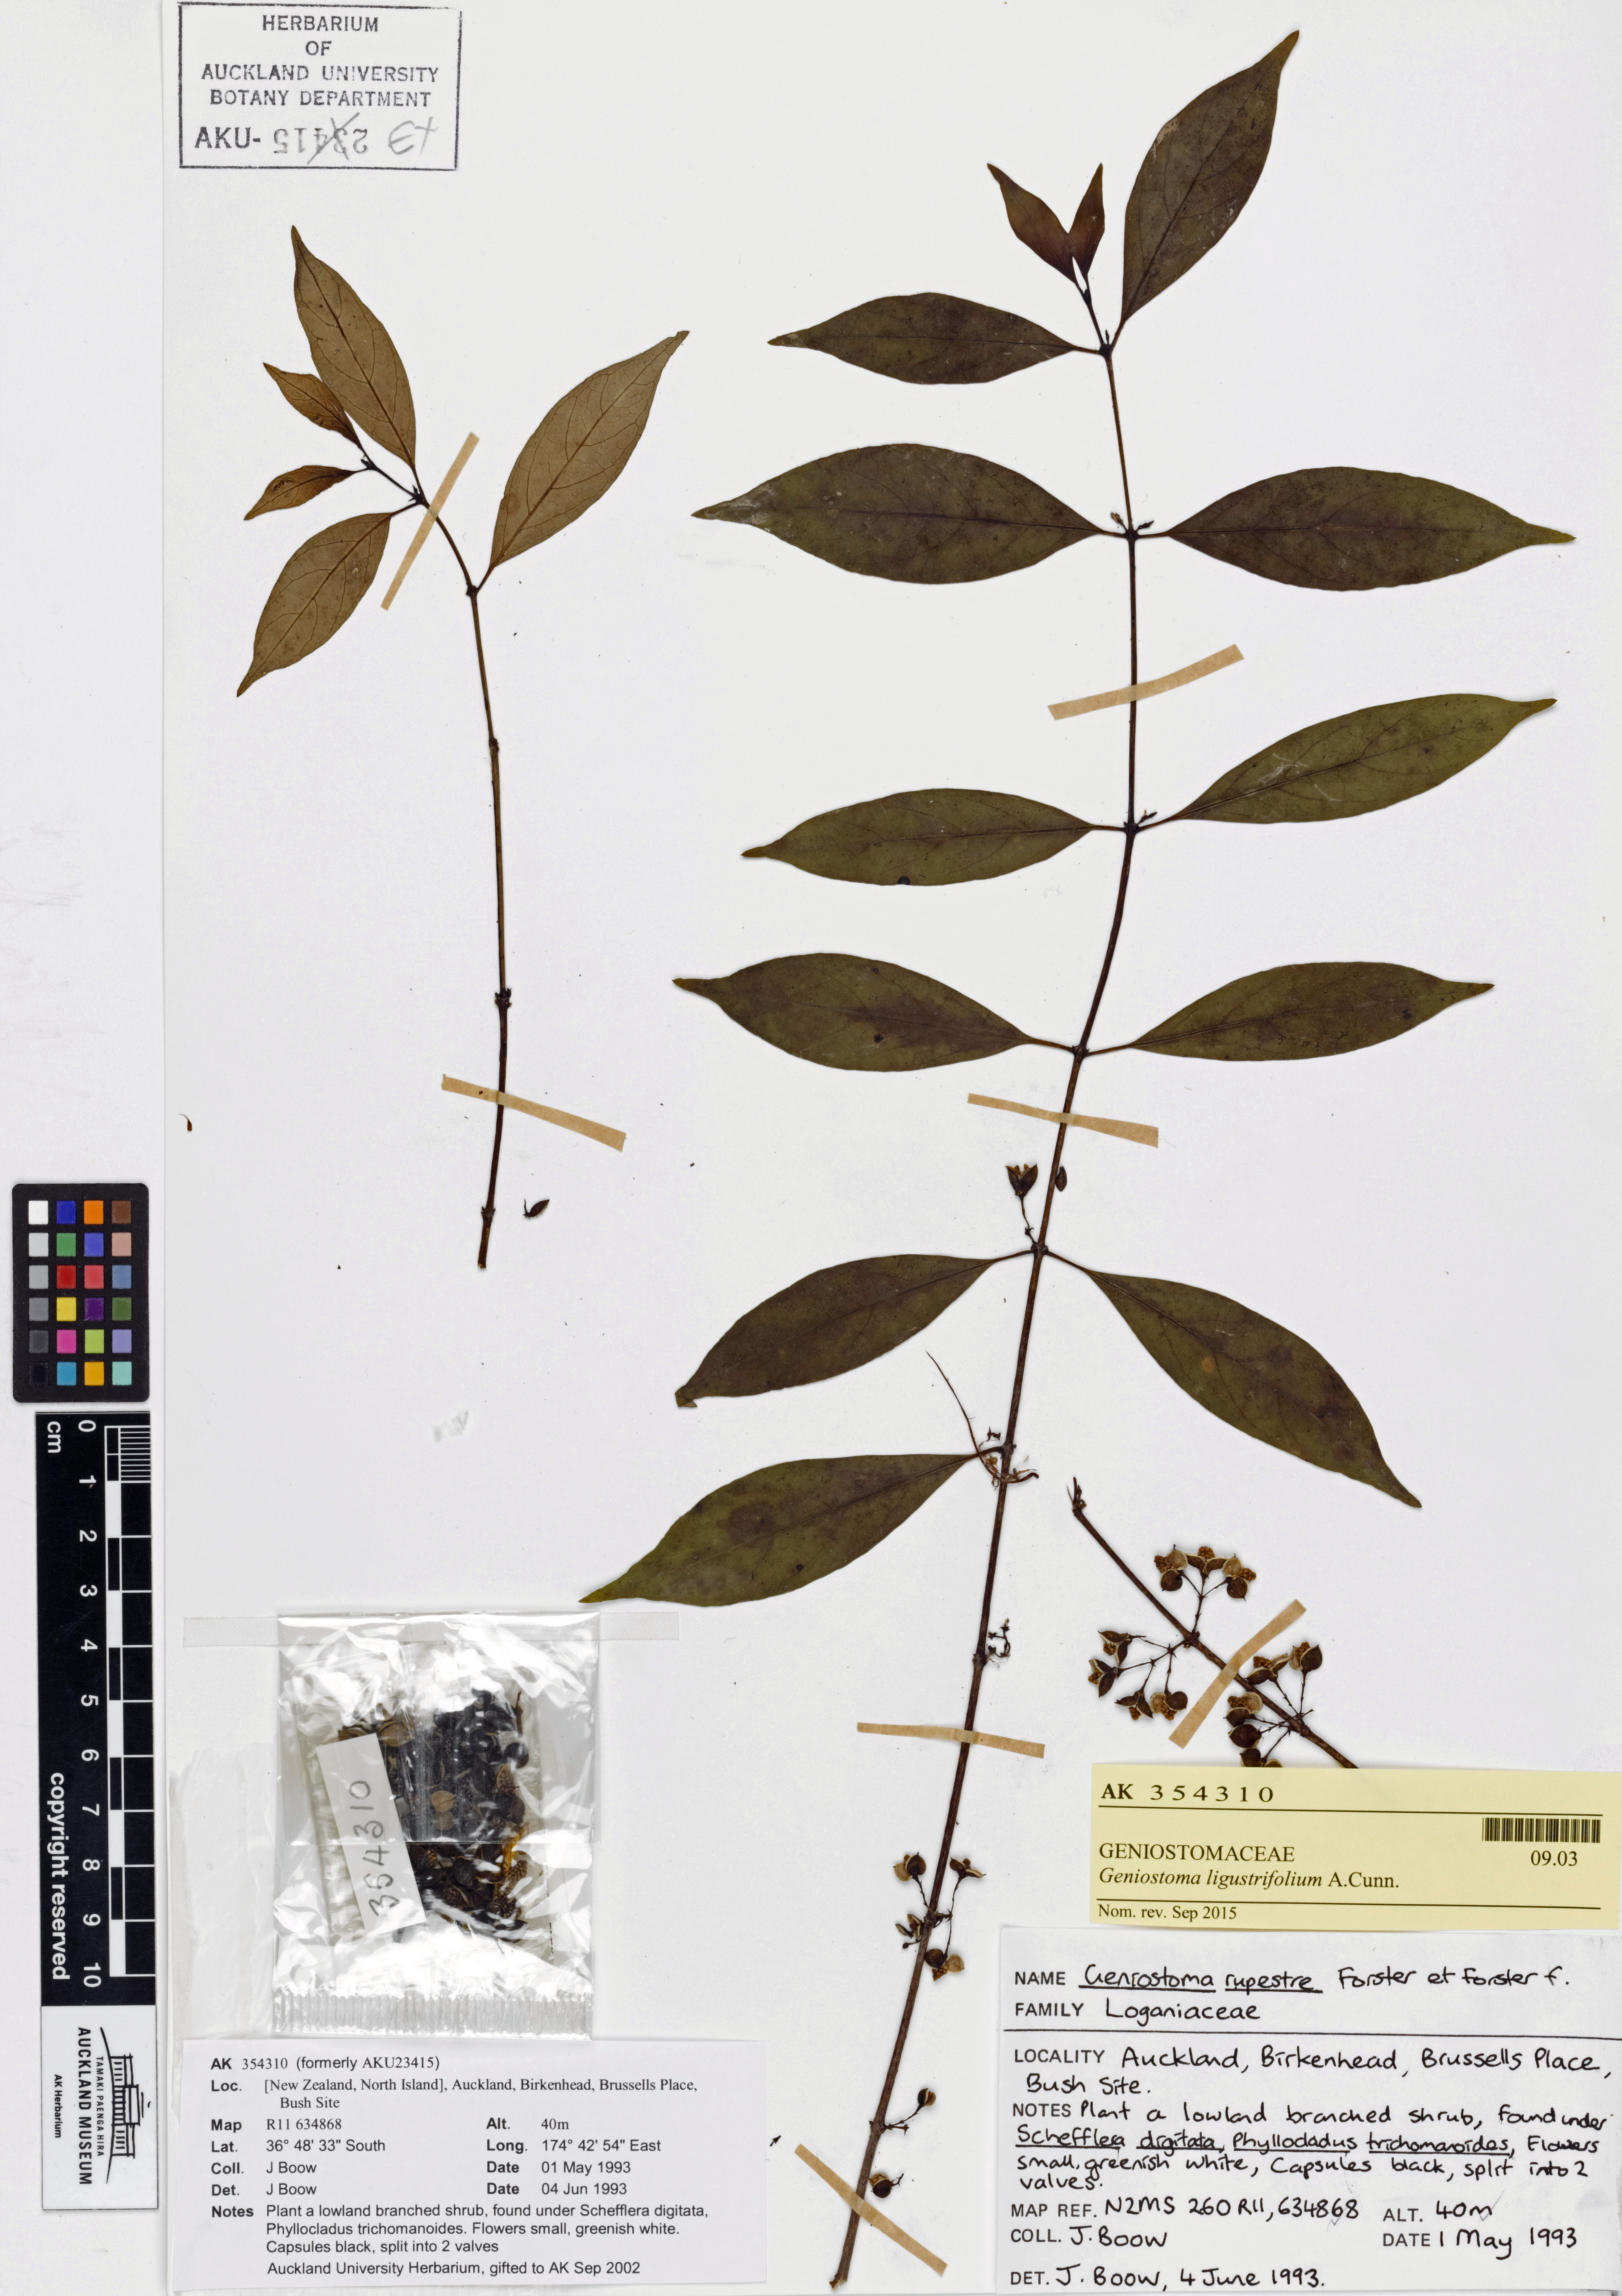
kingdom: Plantae
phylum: Tracheophyta
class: Magnoliopsida
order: Gentianales
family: Loganiaceae
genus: Geniostoma
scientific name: Geniostoma ligustrifolium
